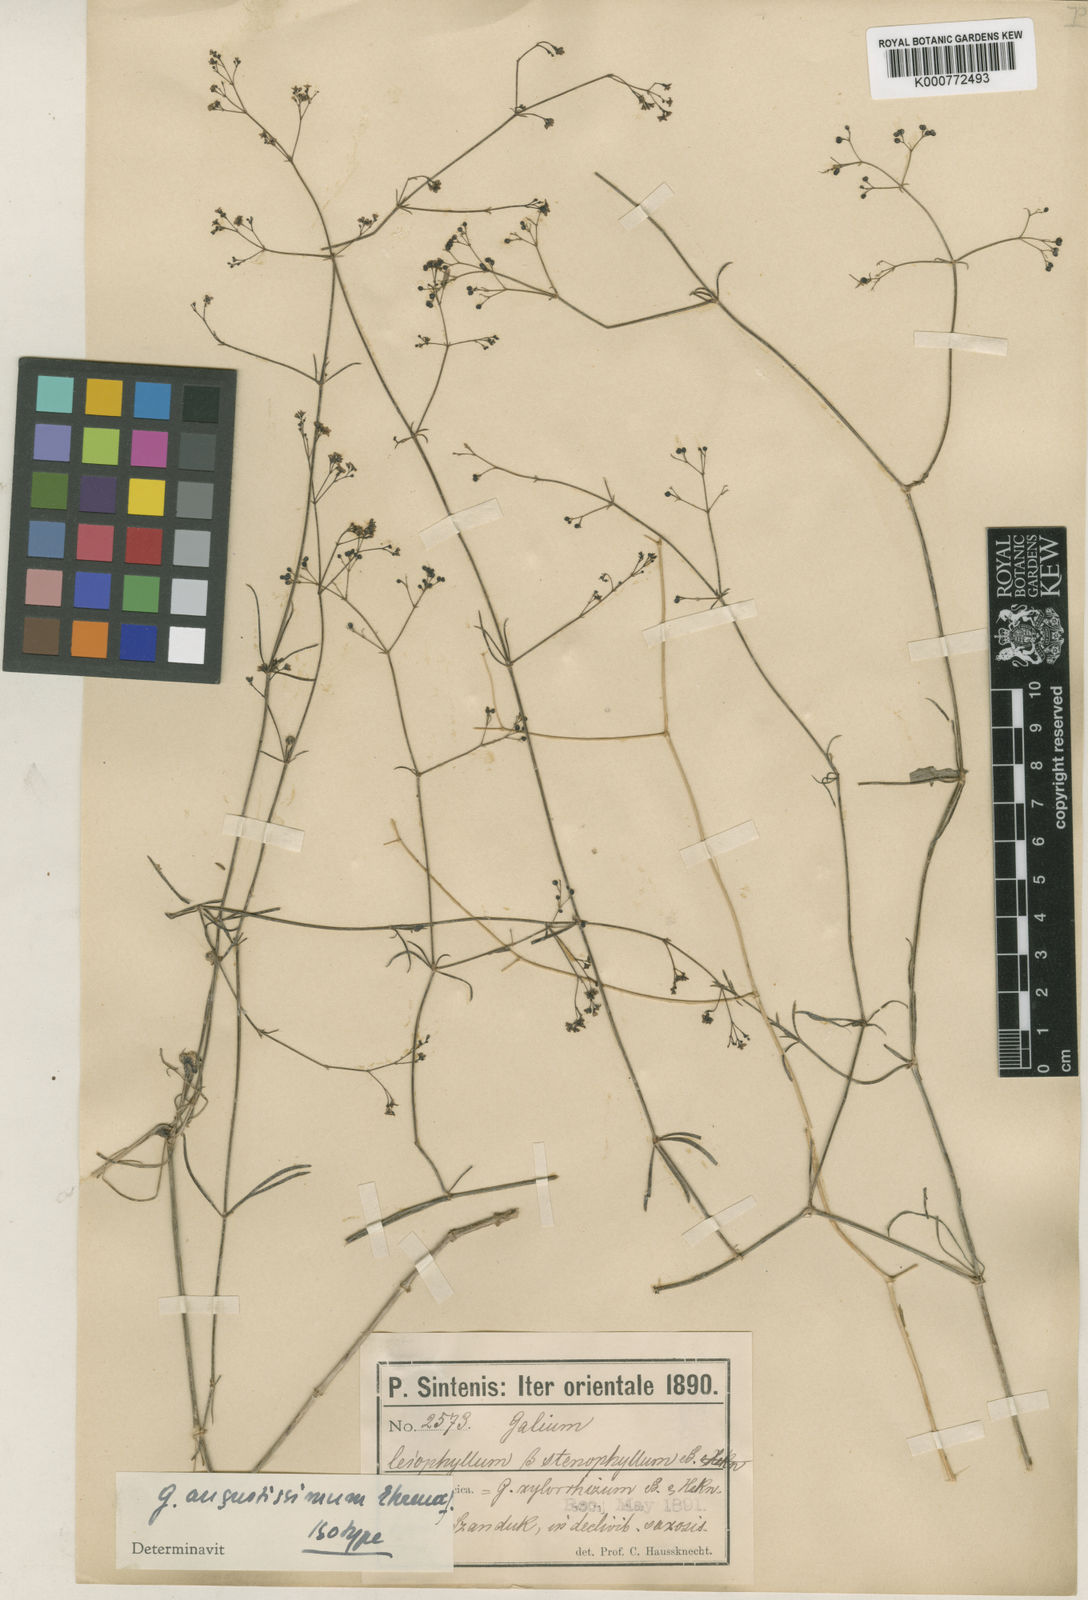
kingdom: Plantae
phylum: Tracheophyta
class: Magnoliopsida
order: Gentianales
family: Rubiaceae
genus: Galium
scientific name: Galium angustissimum
